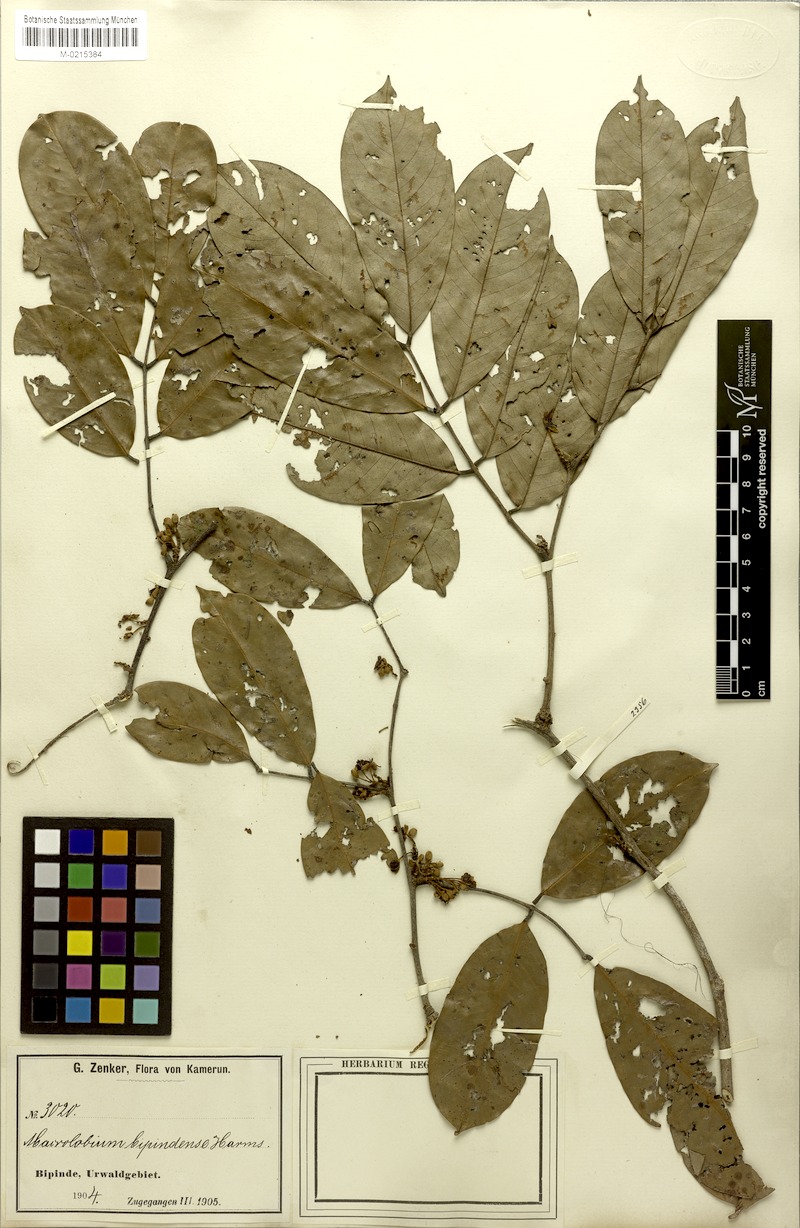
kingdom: Plantae
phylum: Tracheophyta
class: Magnoliopsida
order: Fabales
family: Fabaceae
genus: Macrolobium
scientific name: Macrolobium
